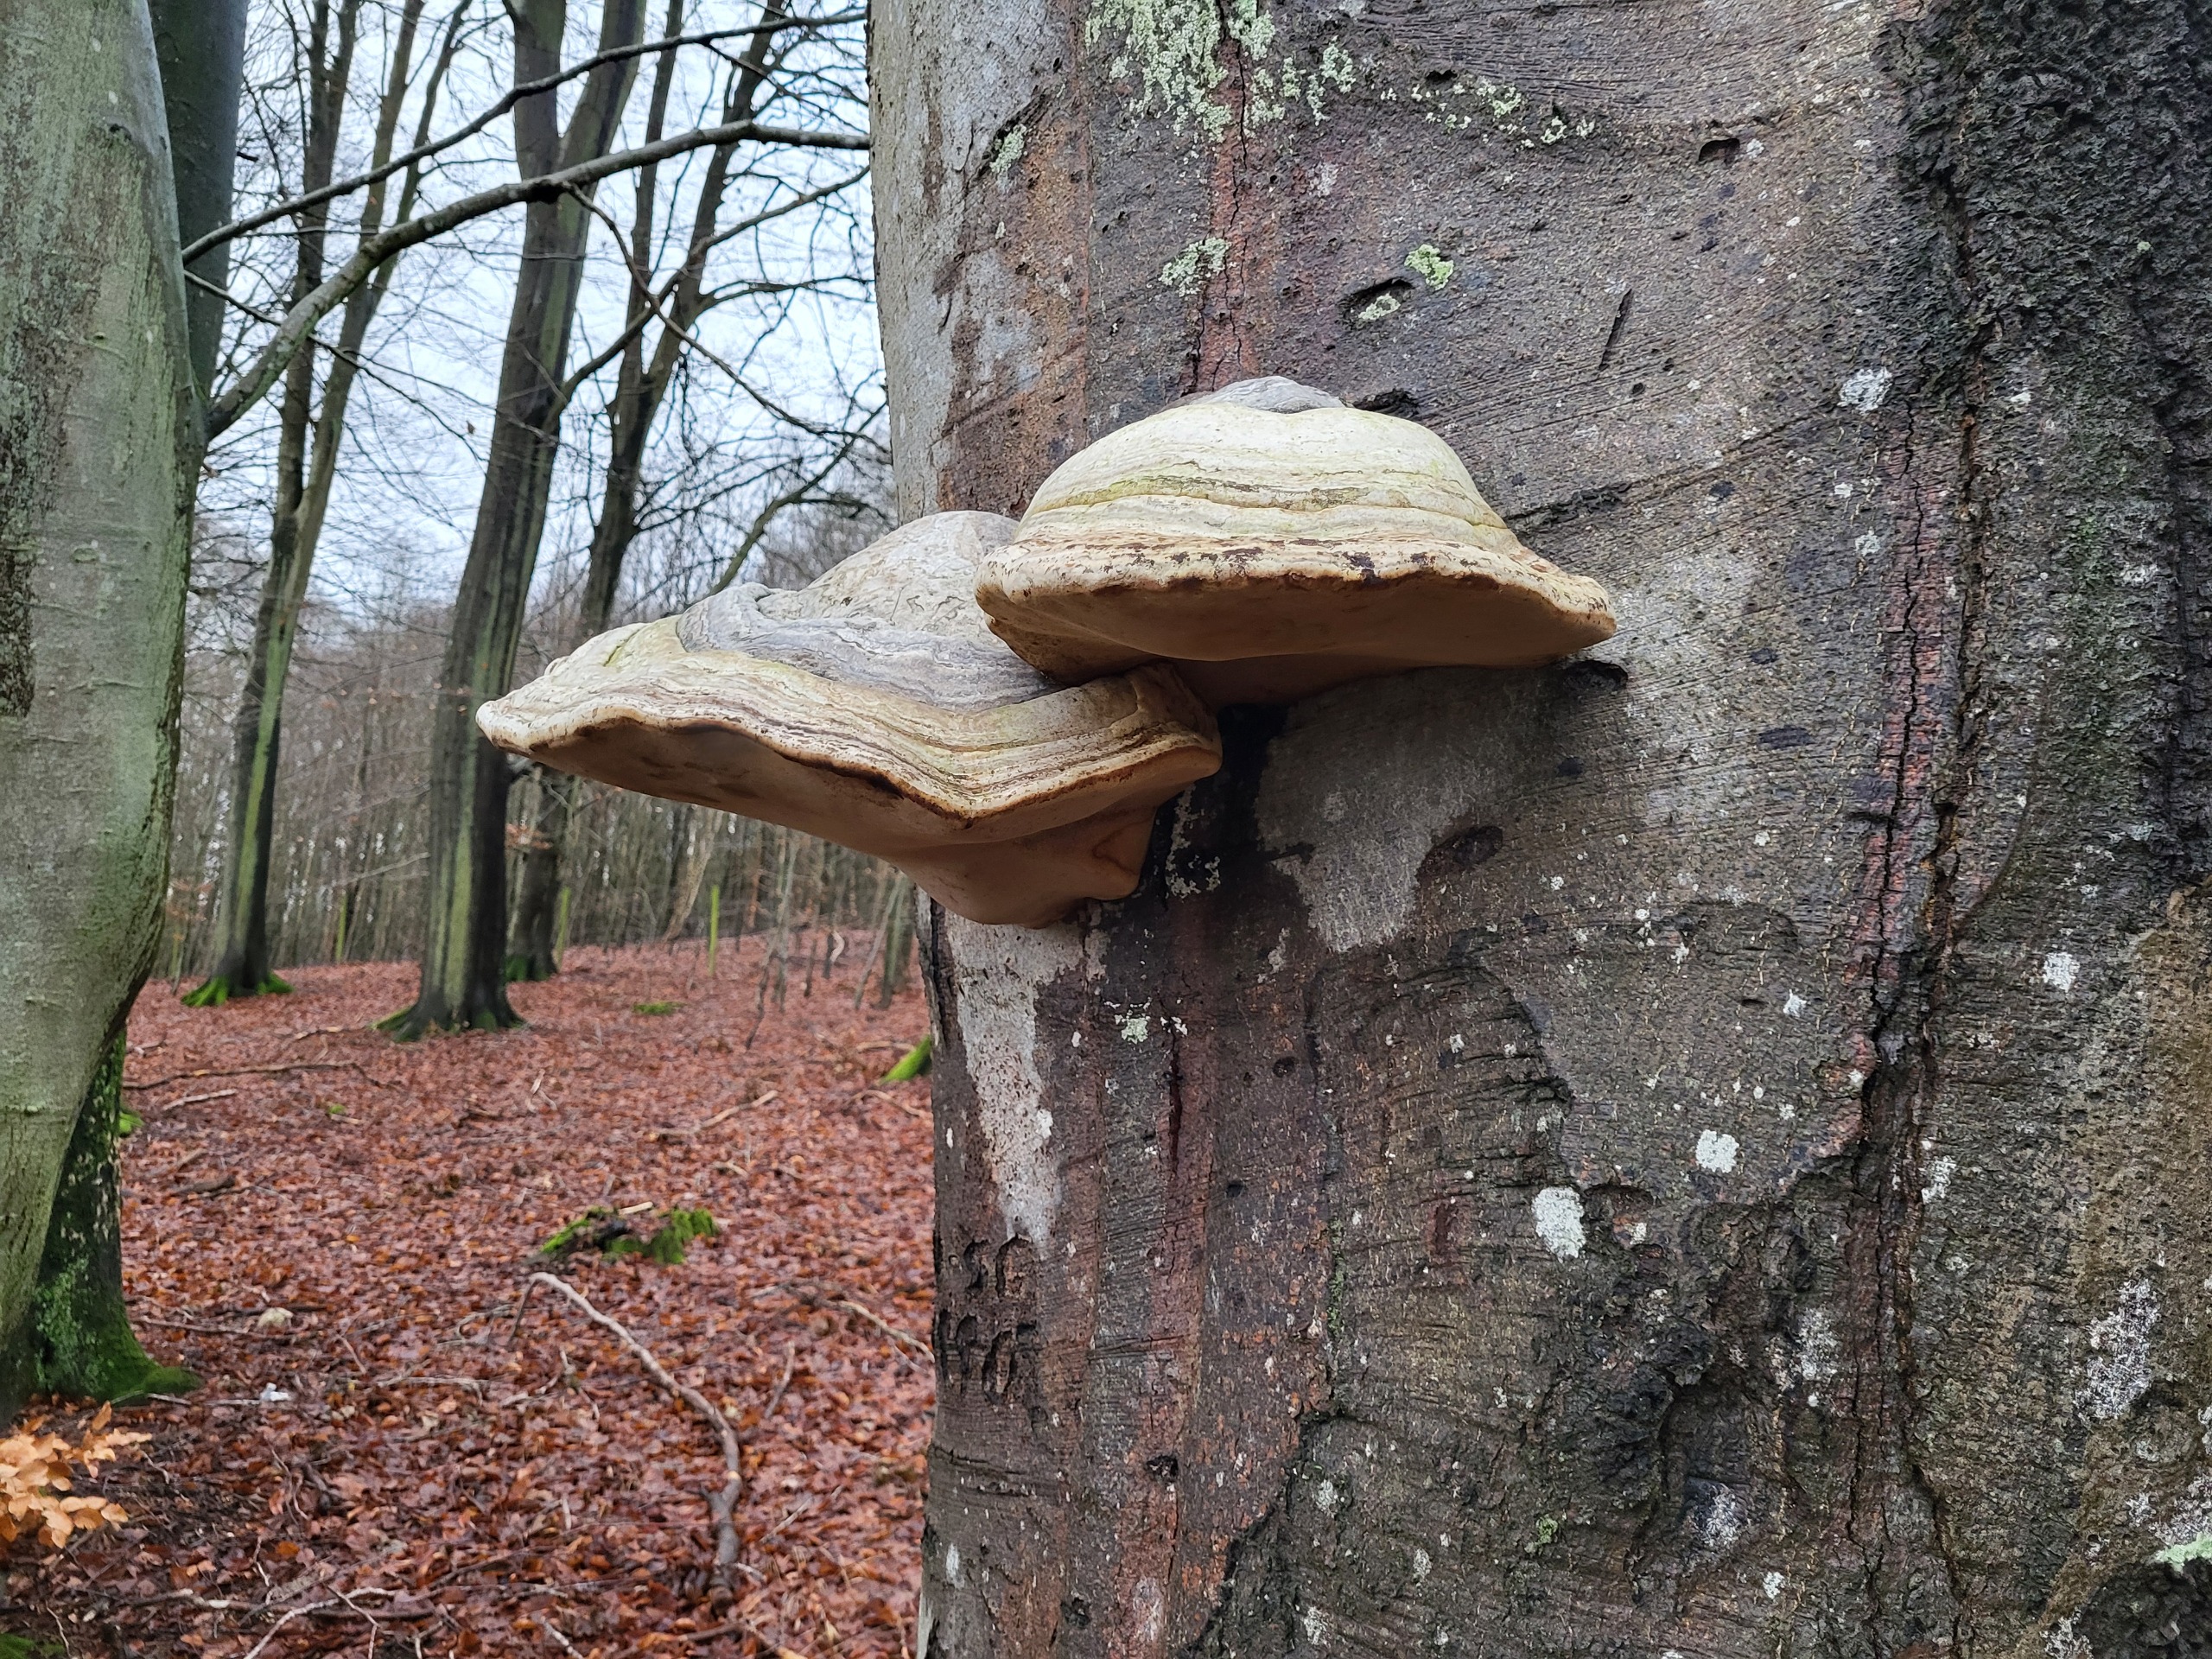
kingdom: Fungi
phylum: Basidiomycota
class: Agaricomycetes
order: Polyporales
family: Polyporaceae
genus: Fomes
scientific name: Fomes fomentarius
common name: Tøndersvamp
